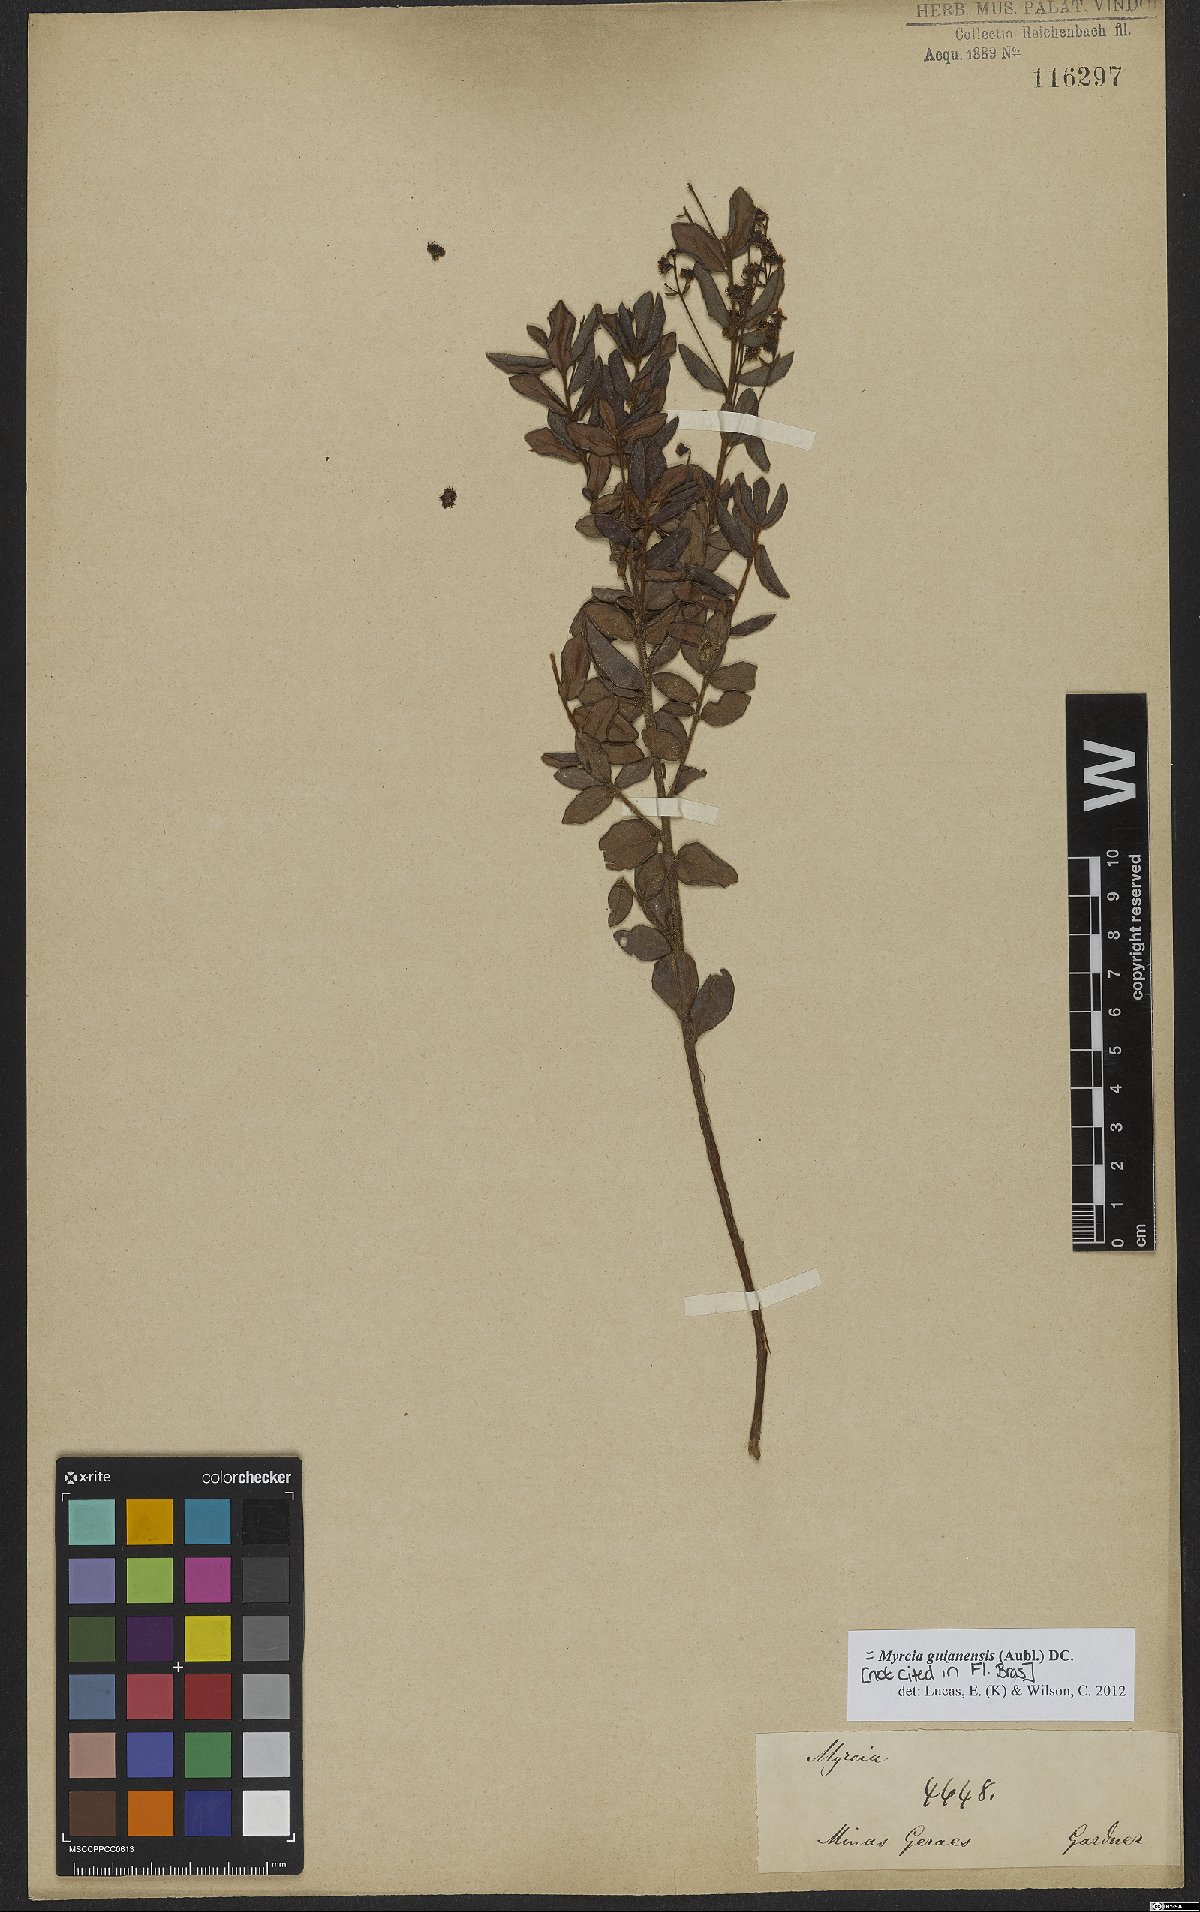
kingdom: Plantae
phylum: Tracheophyta
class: Magnoliopsida
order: Myrtales
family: Myrtaceae
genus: Myrcia
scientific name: Myrcia guianensis
